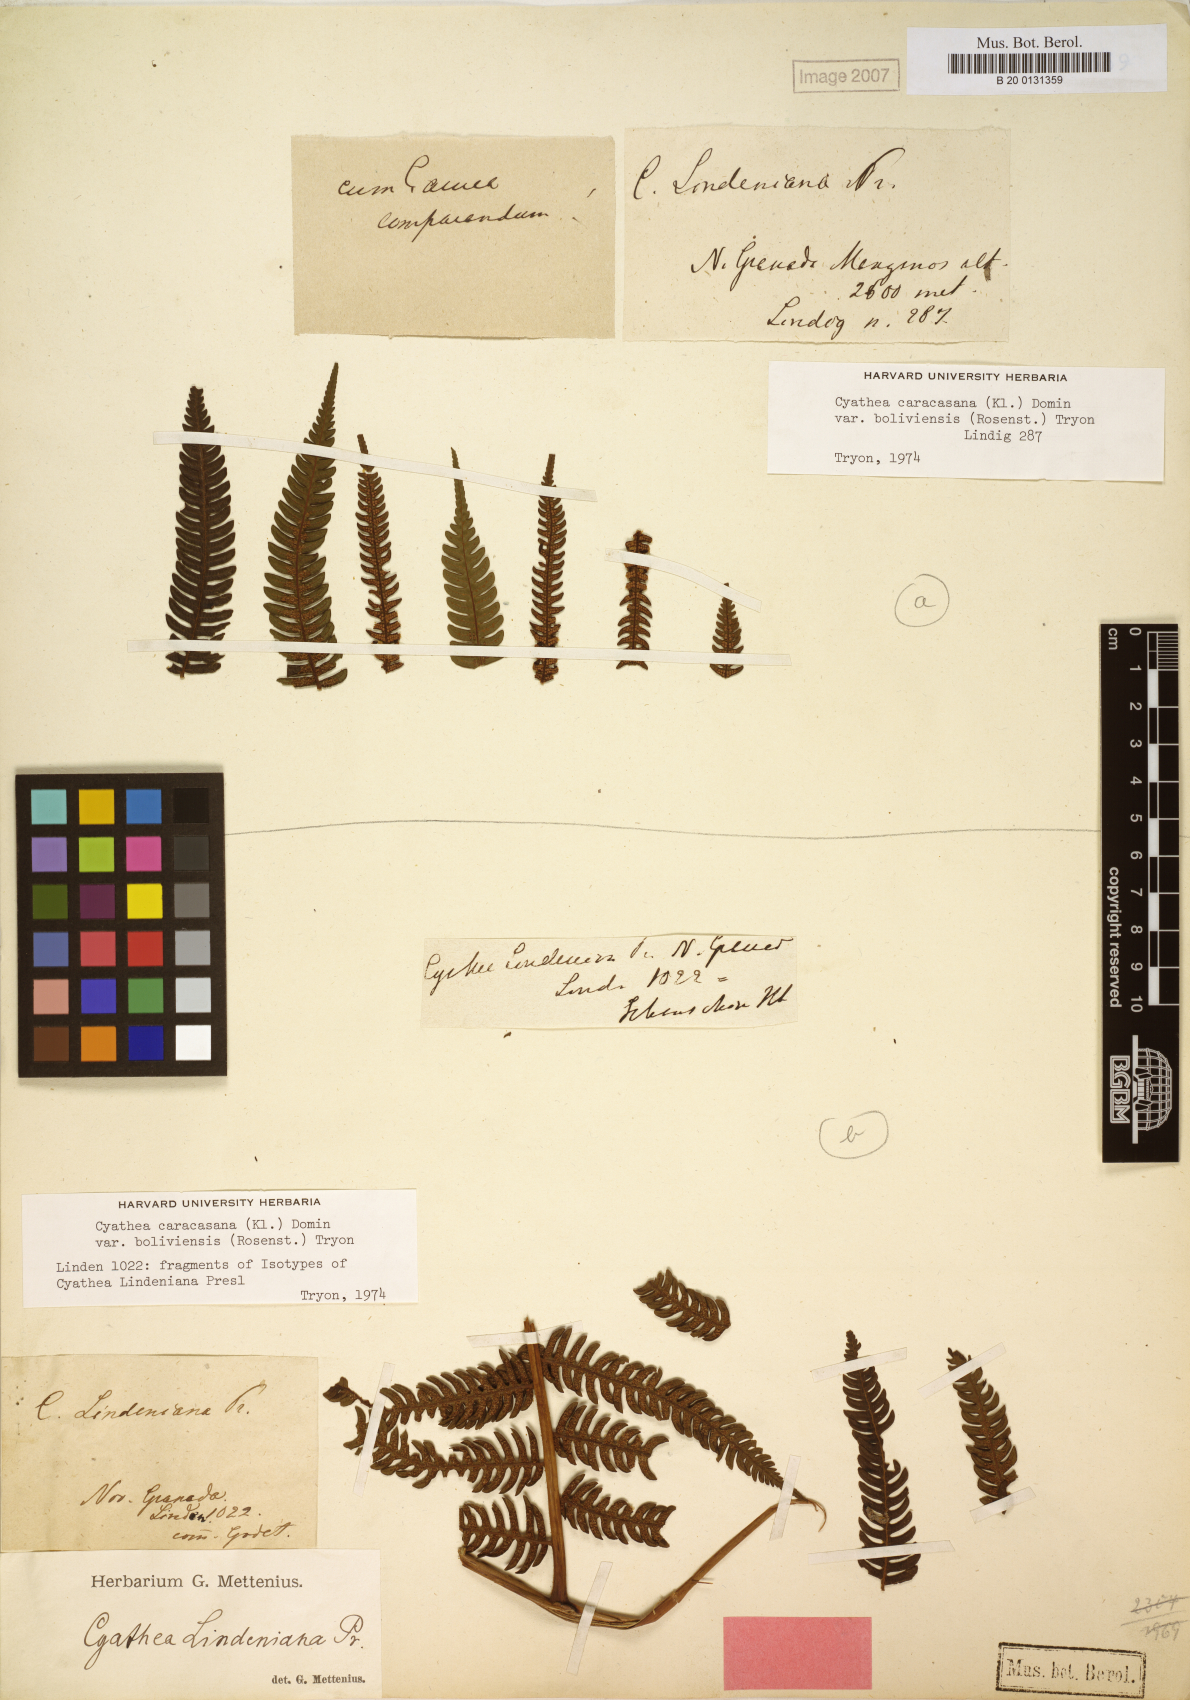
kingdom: Plantae
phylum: Tracheophyta
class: Polypodiopsida
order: Cyatheales
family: Cyatheaceae
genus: Cyathea
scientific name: Cyathea lindeniana
